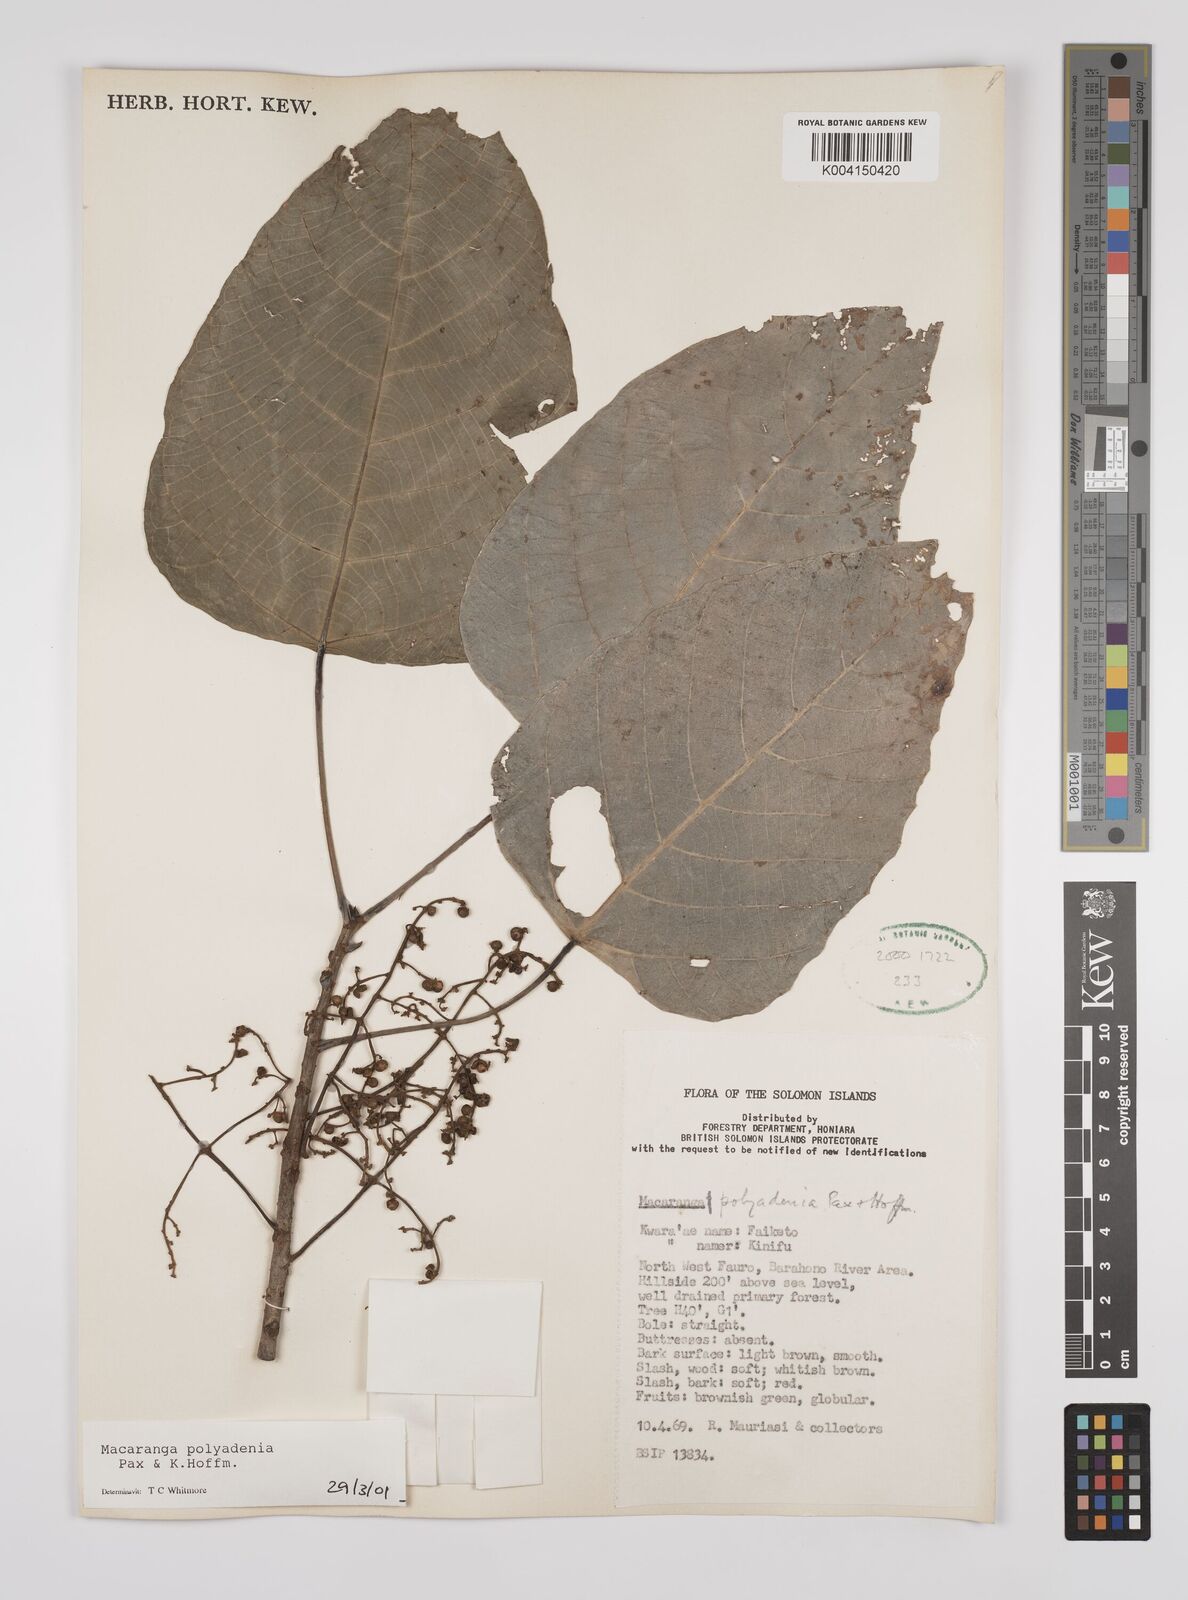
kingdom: Plantae
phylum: Tracheophyta
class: Magnoliopsida
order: Malpighiales
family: Euphorbiaceae
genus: Macaranga
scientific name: Macaranga polyadenia
